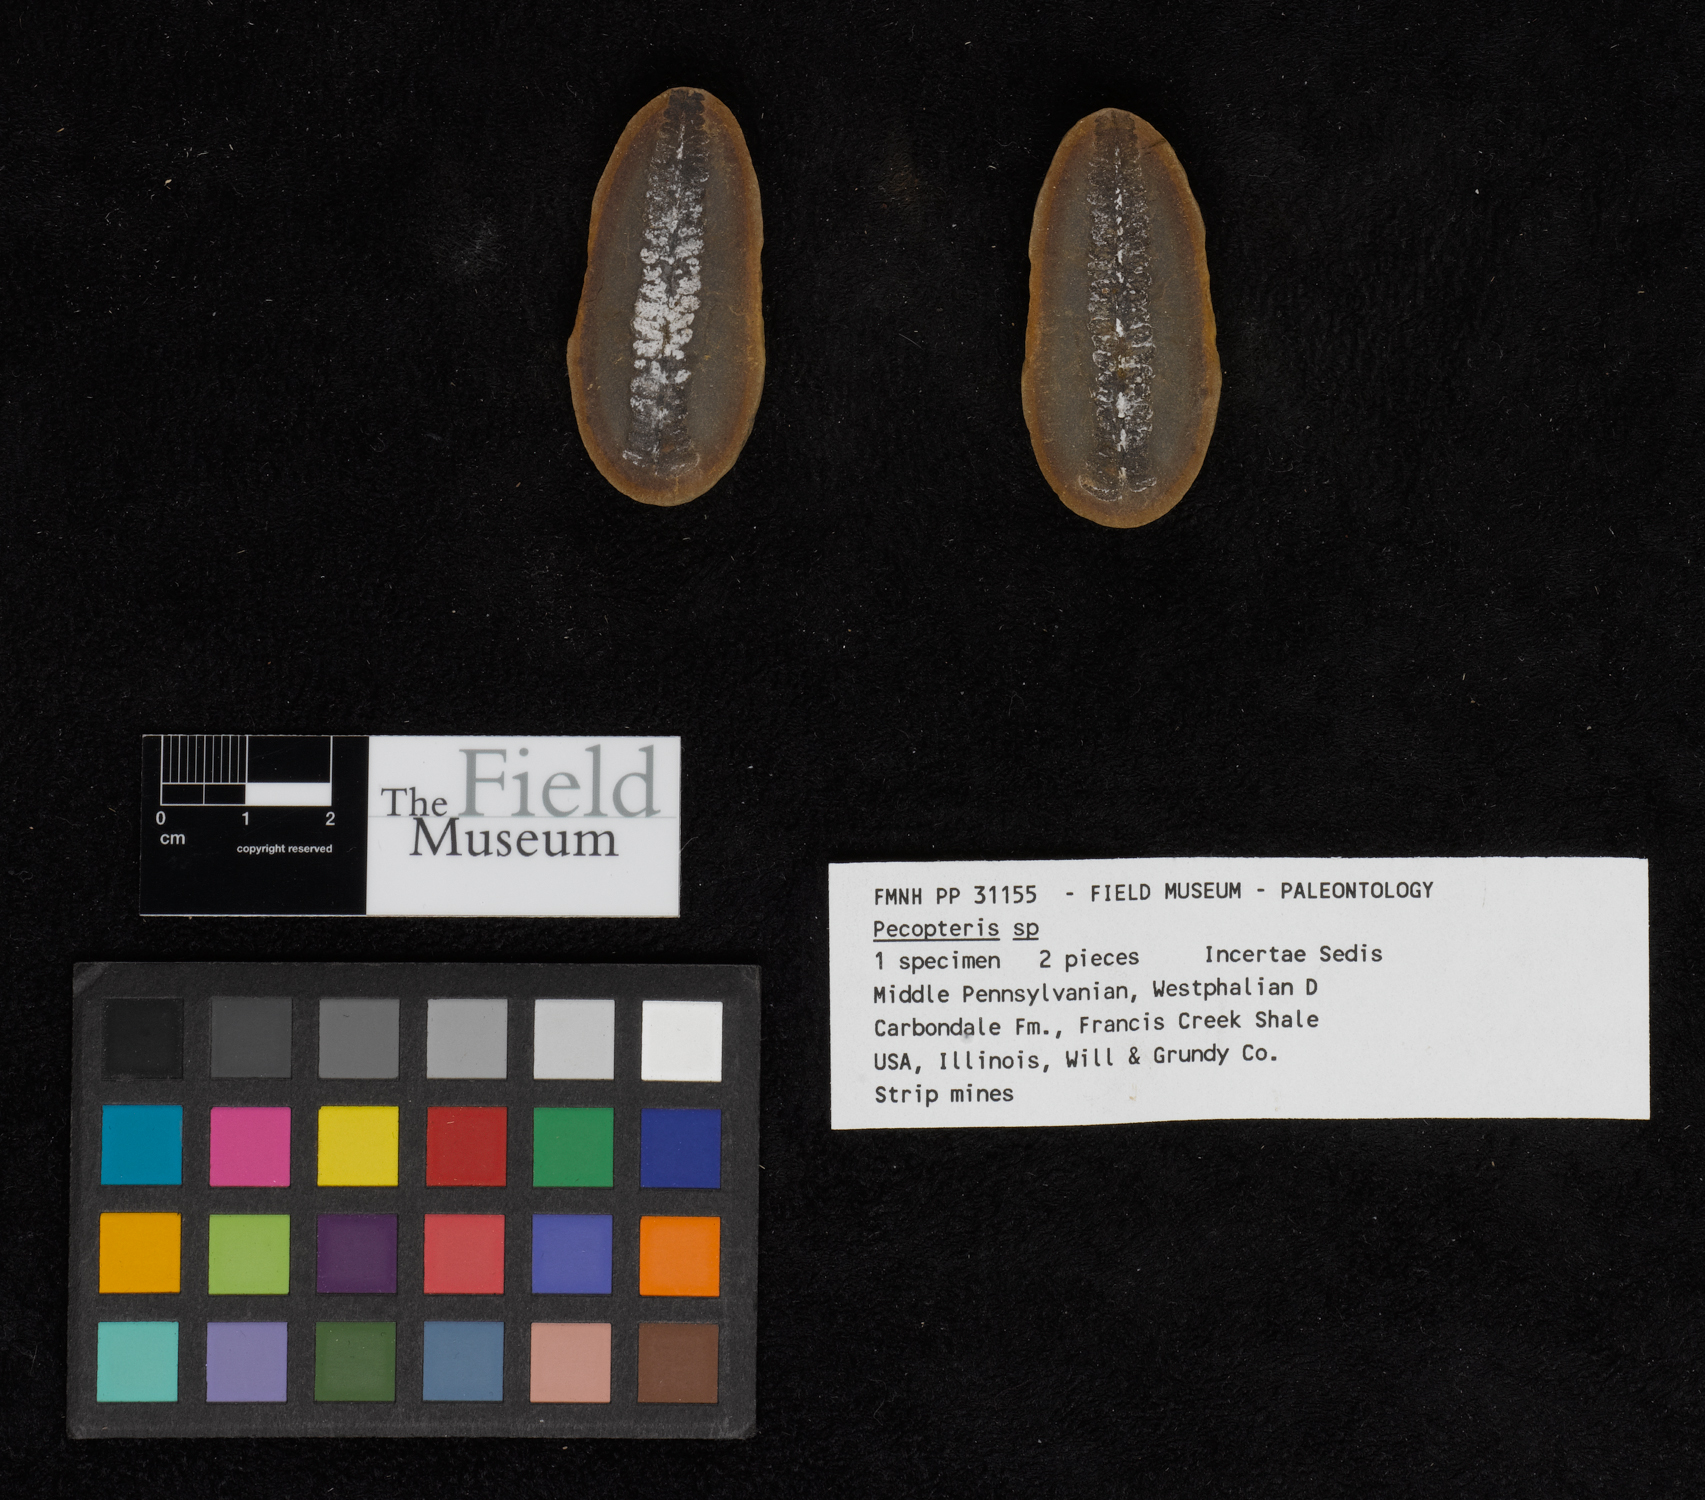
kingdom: Plantae
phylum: Tracheophyta
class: Polypodiopsida
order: Marattiales
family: Asterothecaceae
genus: Pecopteris
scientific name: Pecopteris
